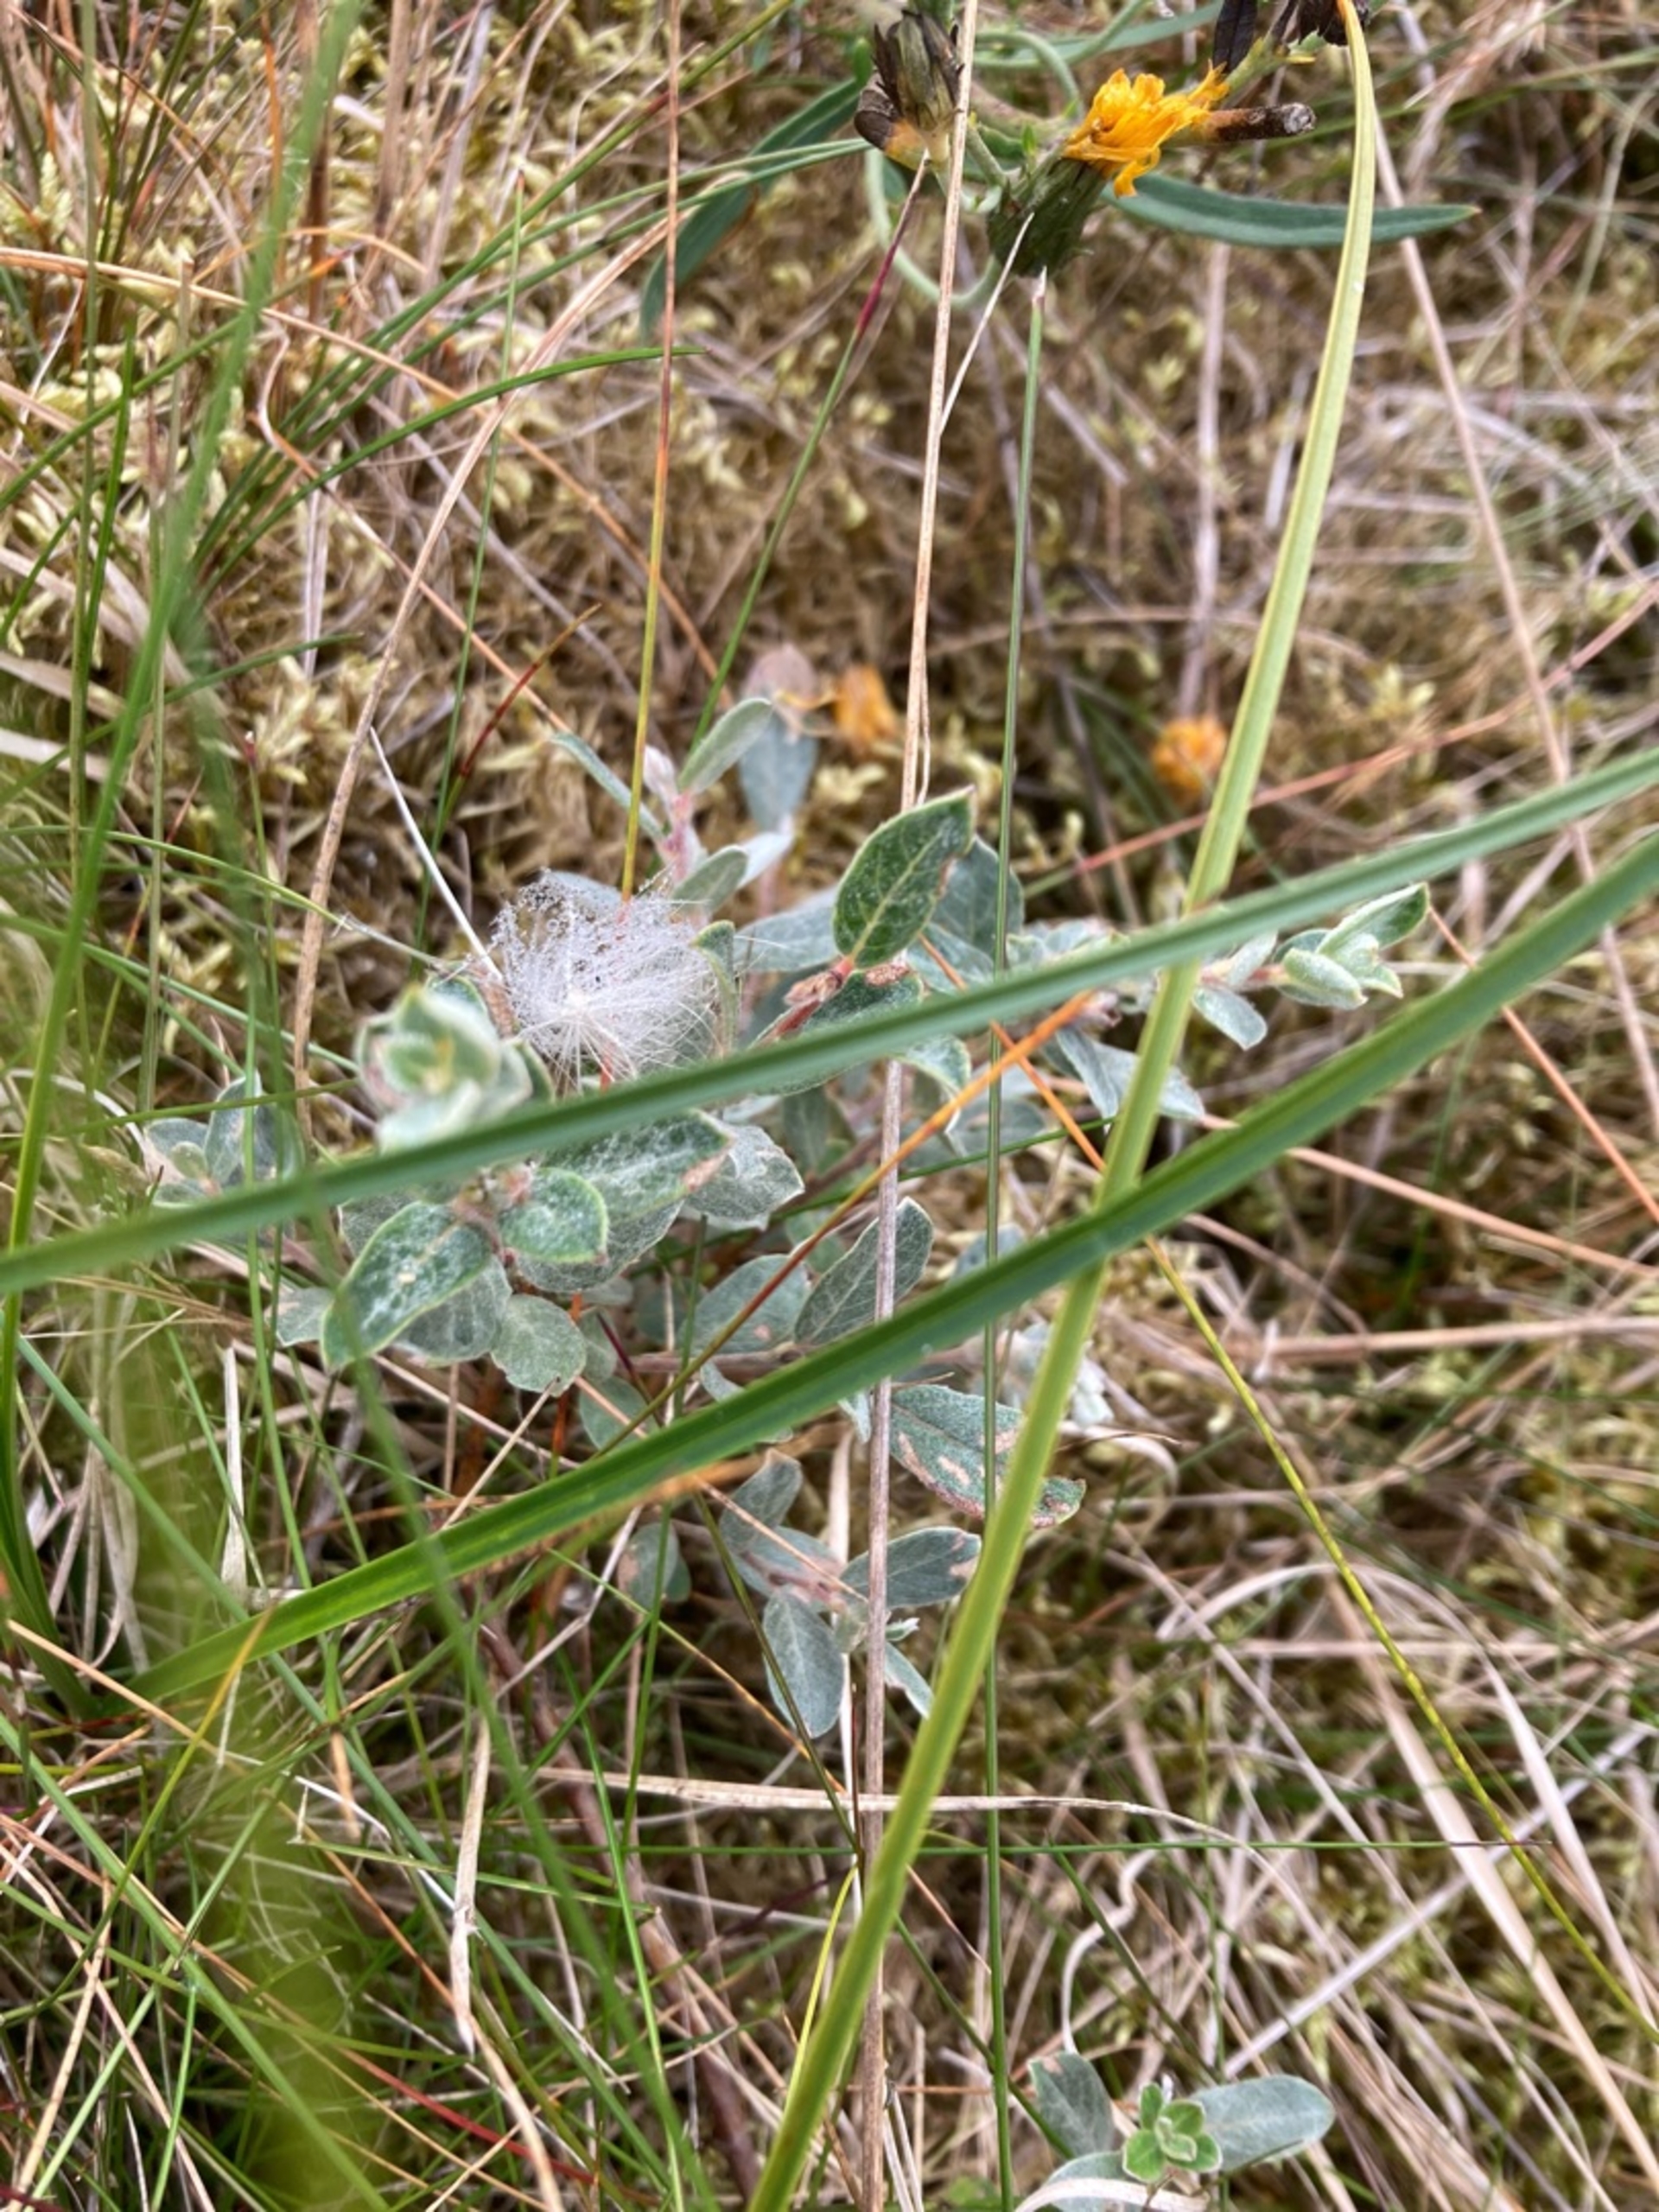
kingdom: Plantae
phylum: Tracheophyta
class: Magnoliopsida
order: Malpighiales
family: Salicaceae
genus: Salix
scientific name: Salix repens
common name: Gråris
